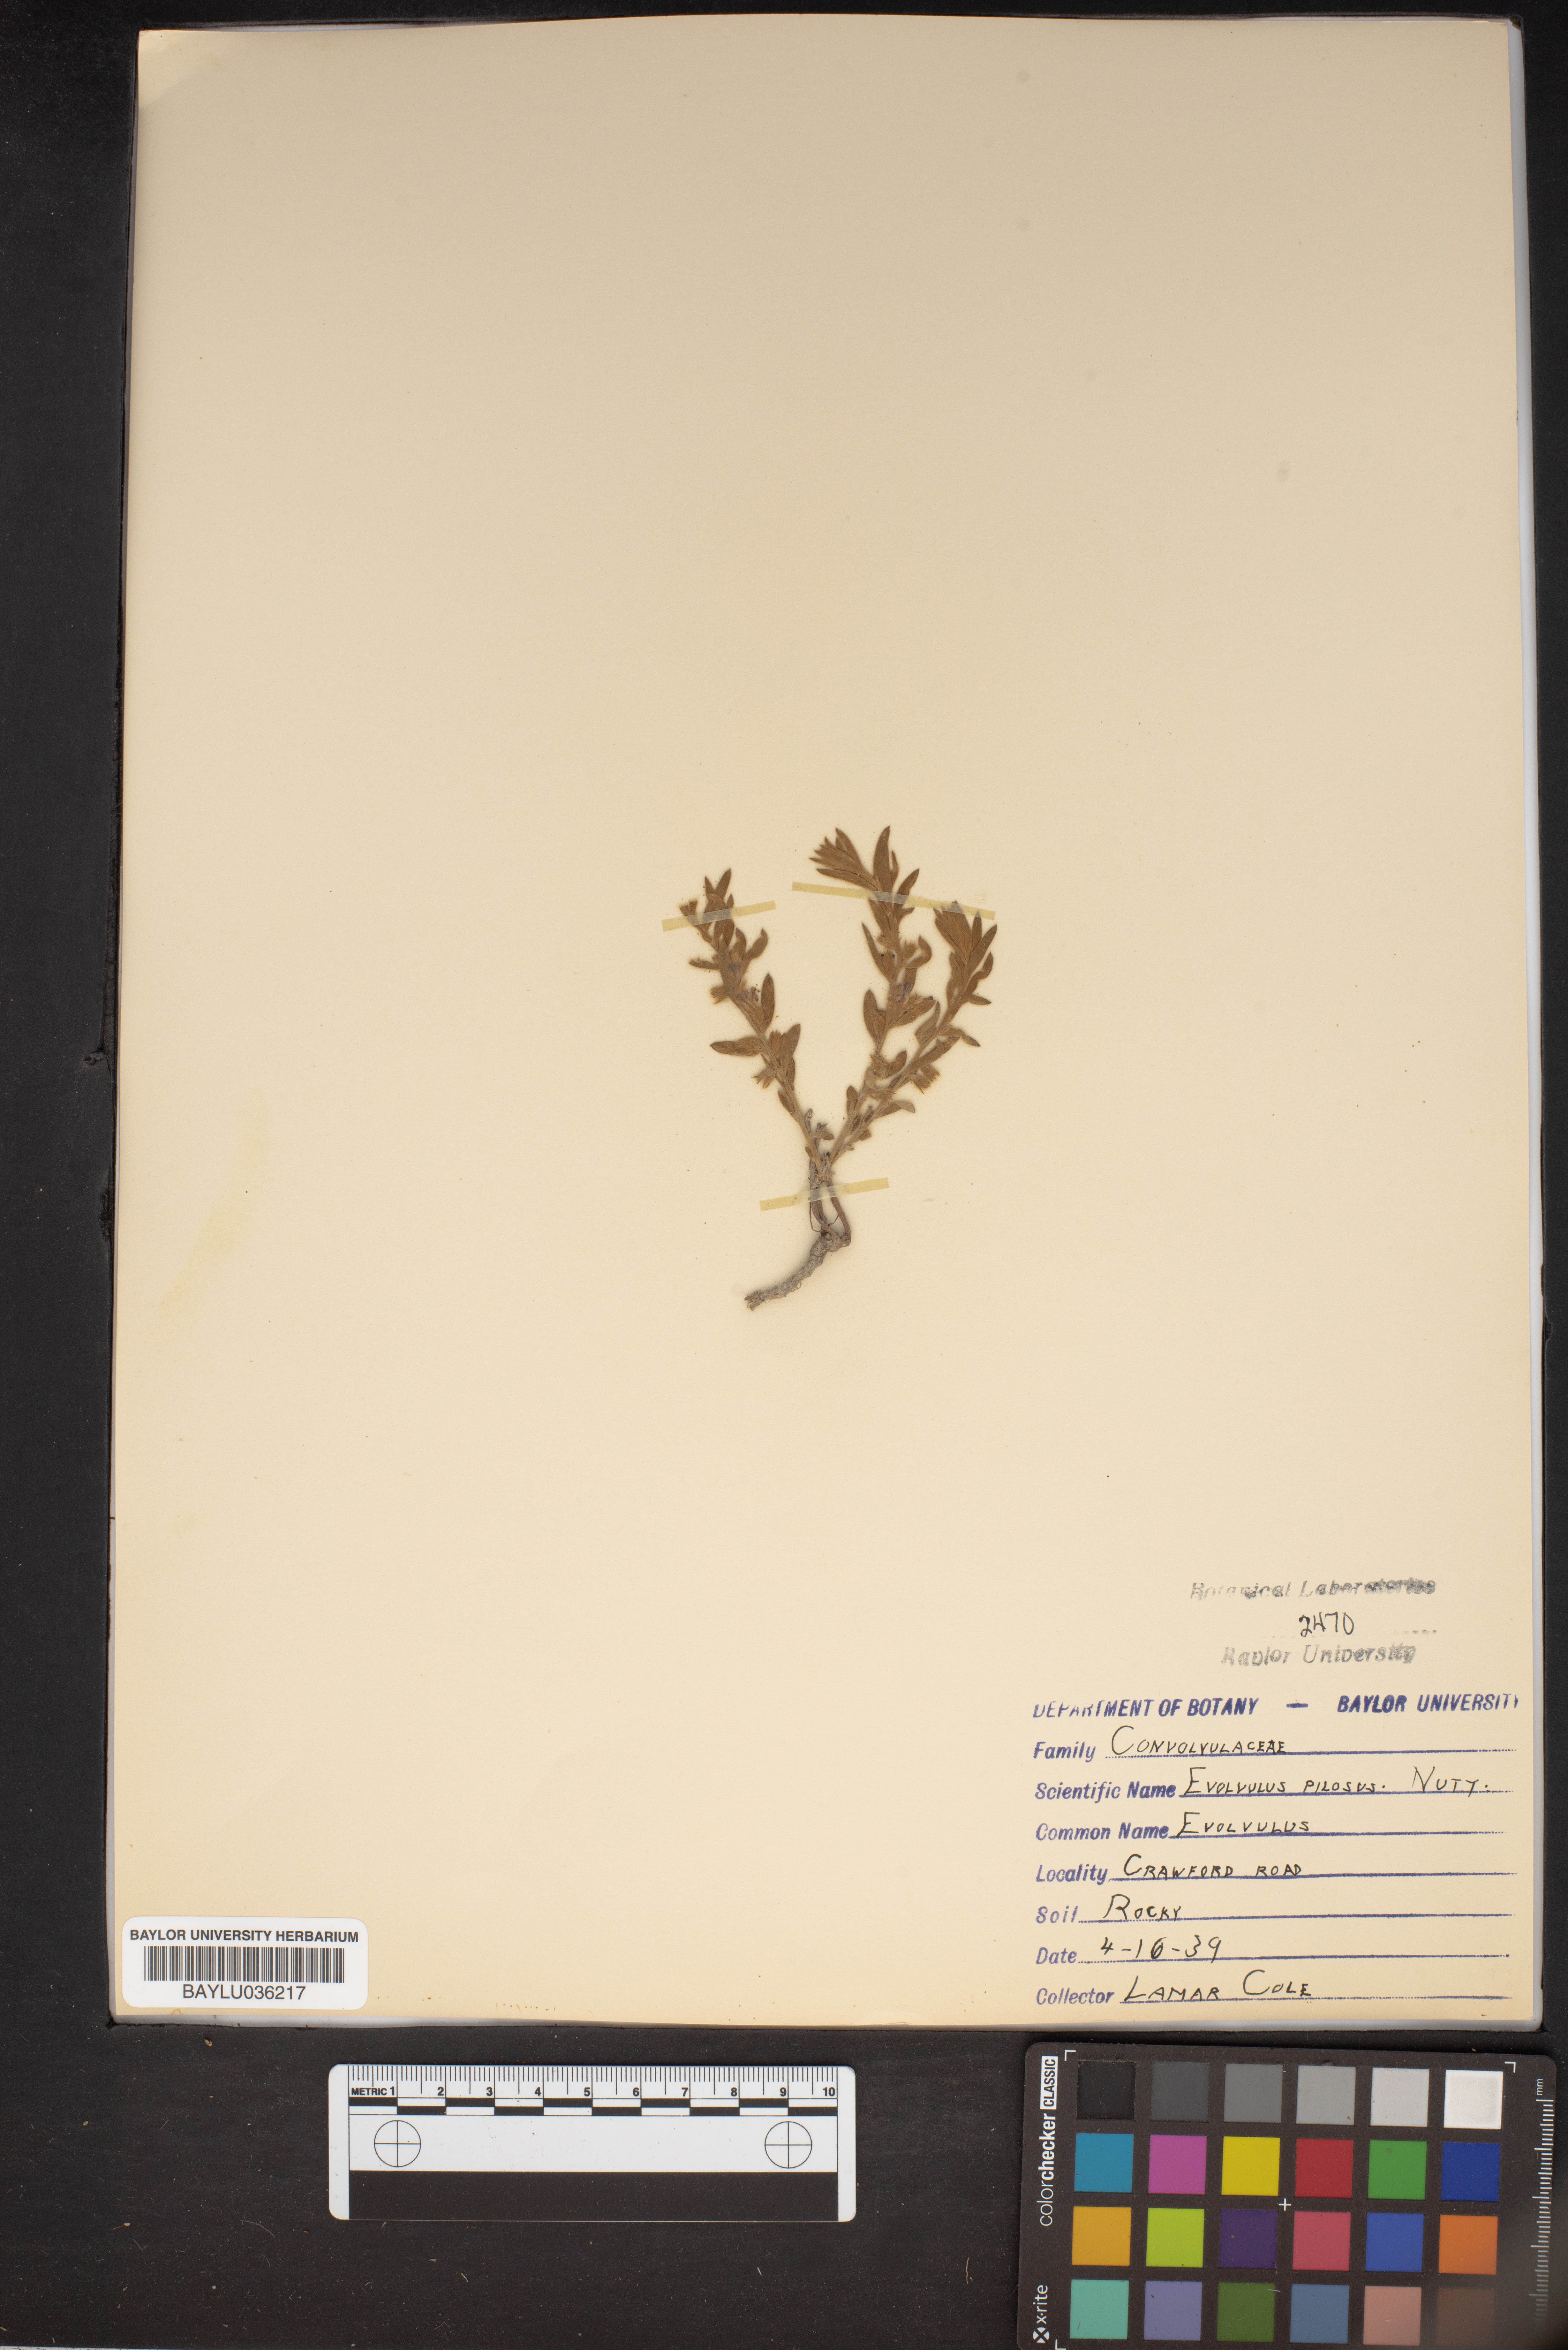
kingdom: Plantae
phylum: Tracheophyta
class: Magnoliopsida
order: Solanales
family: Convolvulaceae
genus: Evolvulus
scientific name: Evolvulus nuttallianus
